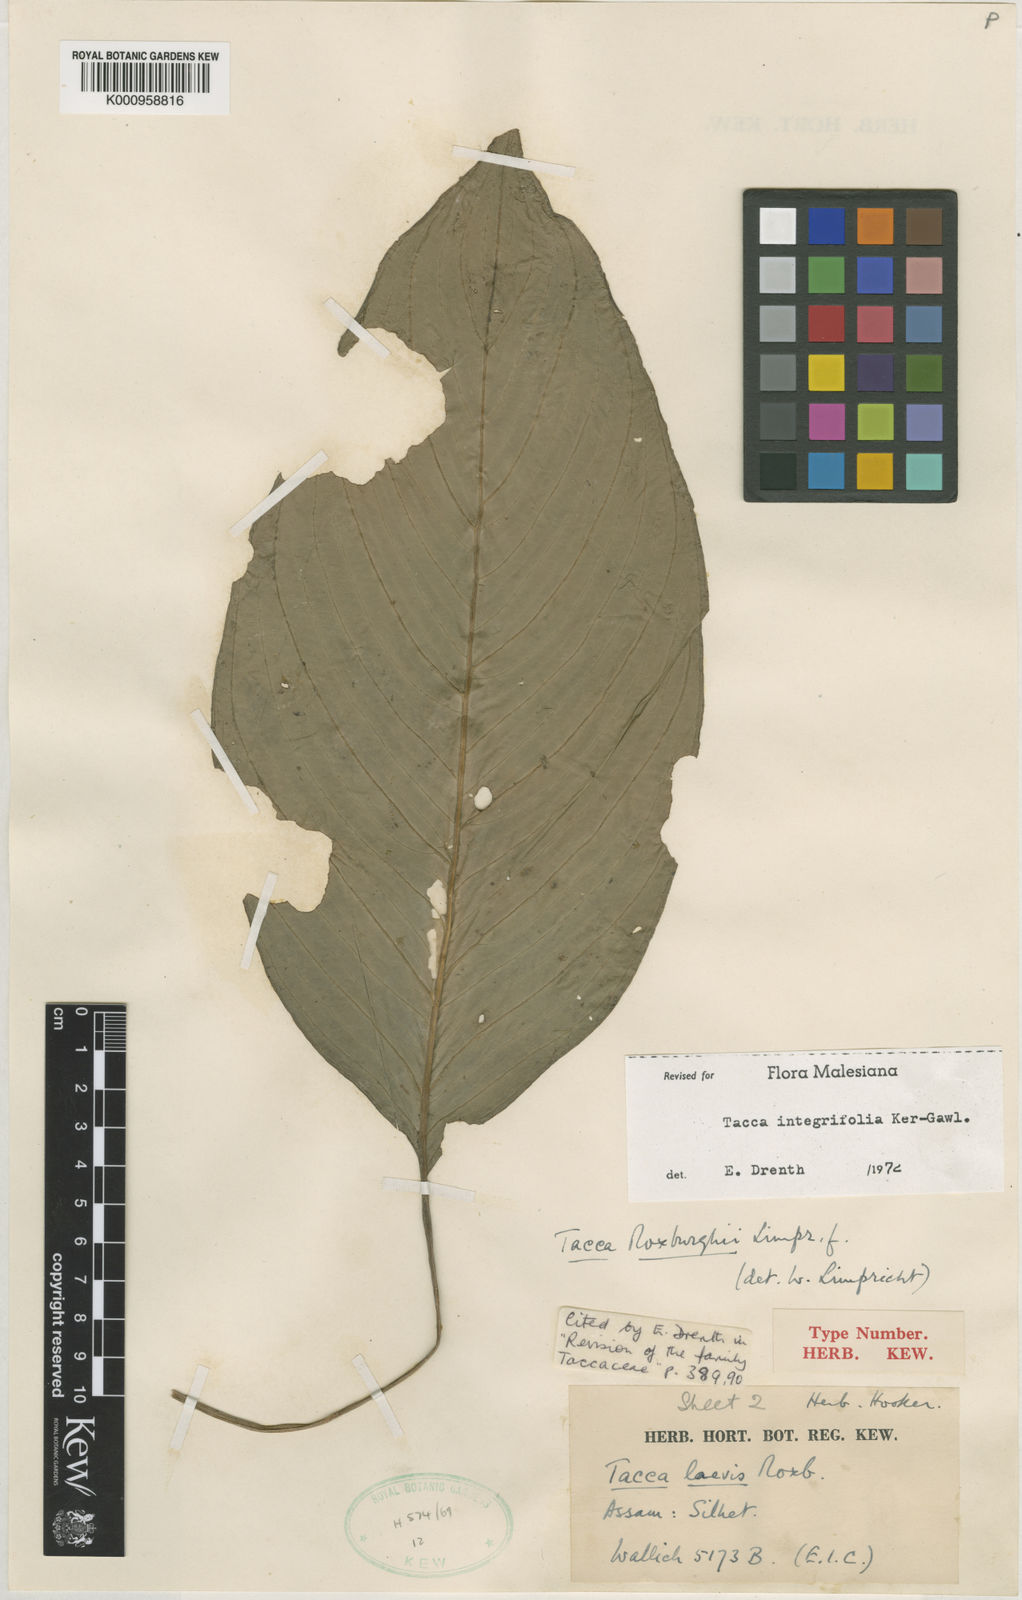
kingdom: Plantae
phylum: Tracheophyta
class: Liliopsida
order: Dioscoreales
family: Dioscoreaceae
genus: Tacca
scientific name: Tacca integrifolia
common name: Batplant
